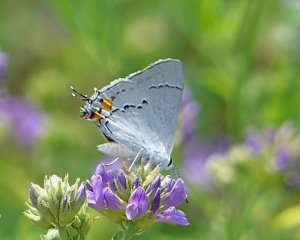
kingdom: Animalia
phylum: Arthropoda
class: Insecta
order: Lepidoptera
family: Lycaenidae
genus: Strymon
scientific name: Strymon melinus
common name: Gray Hairstreak
